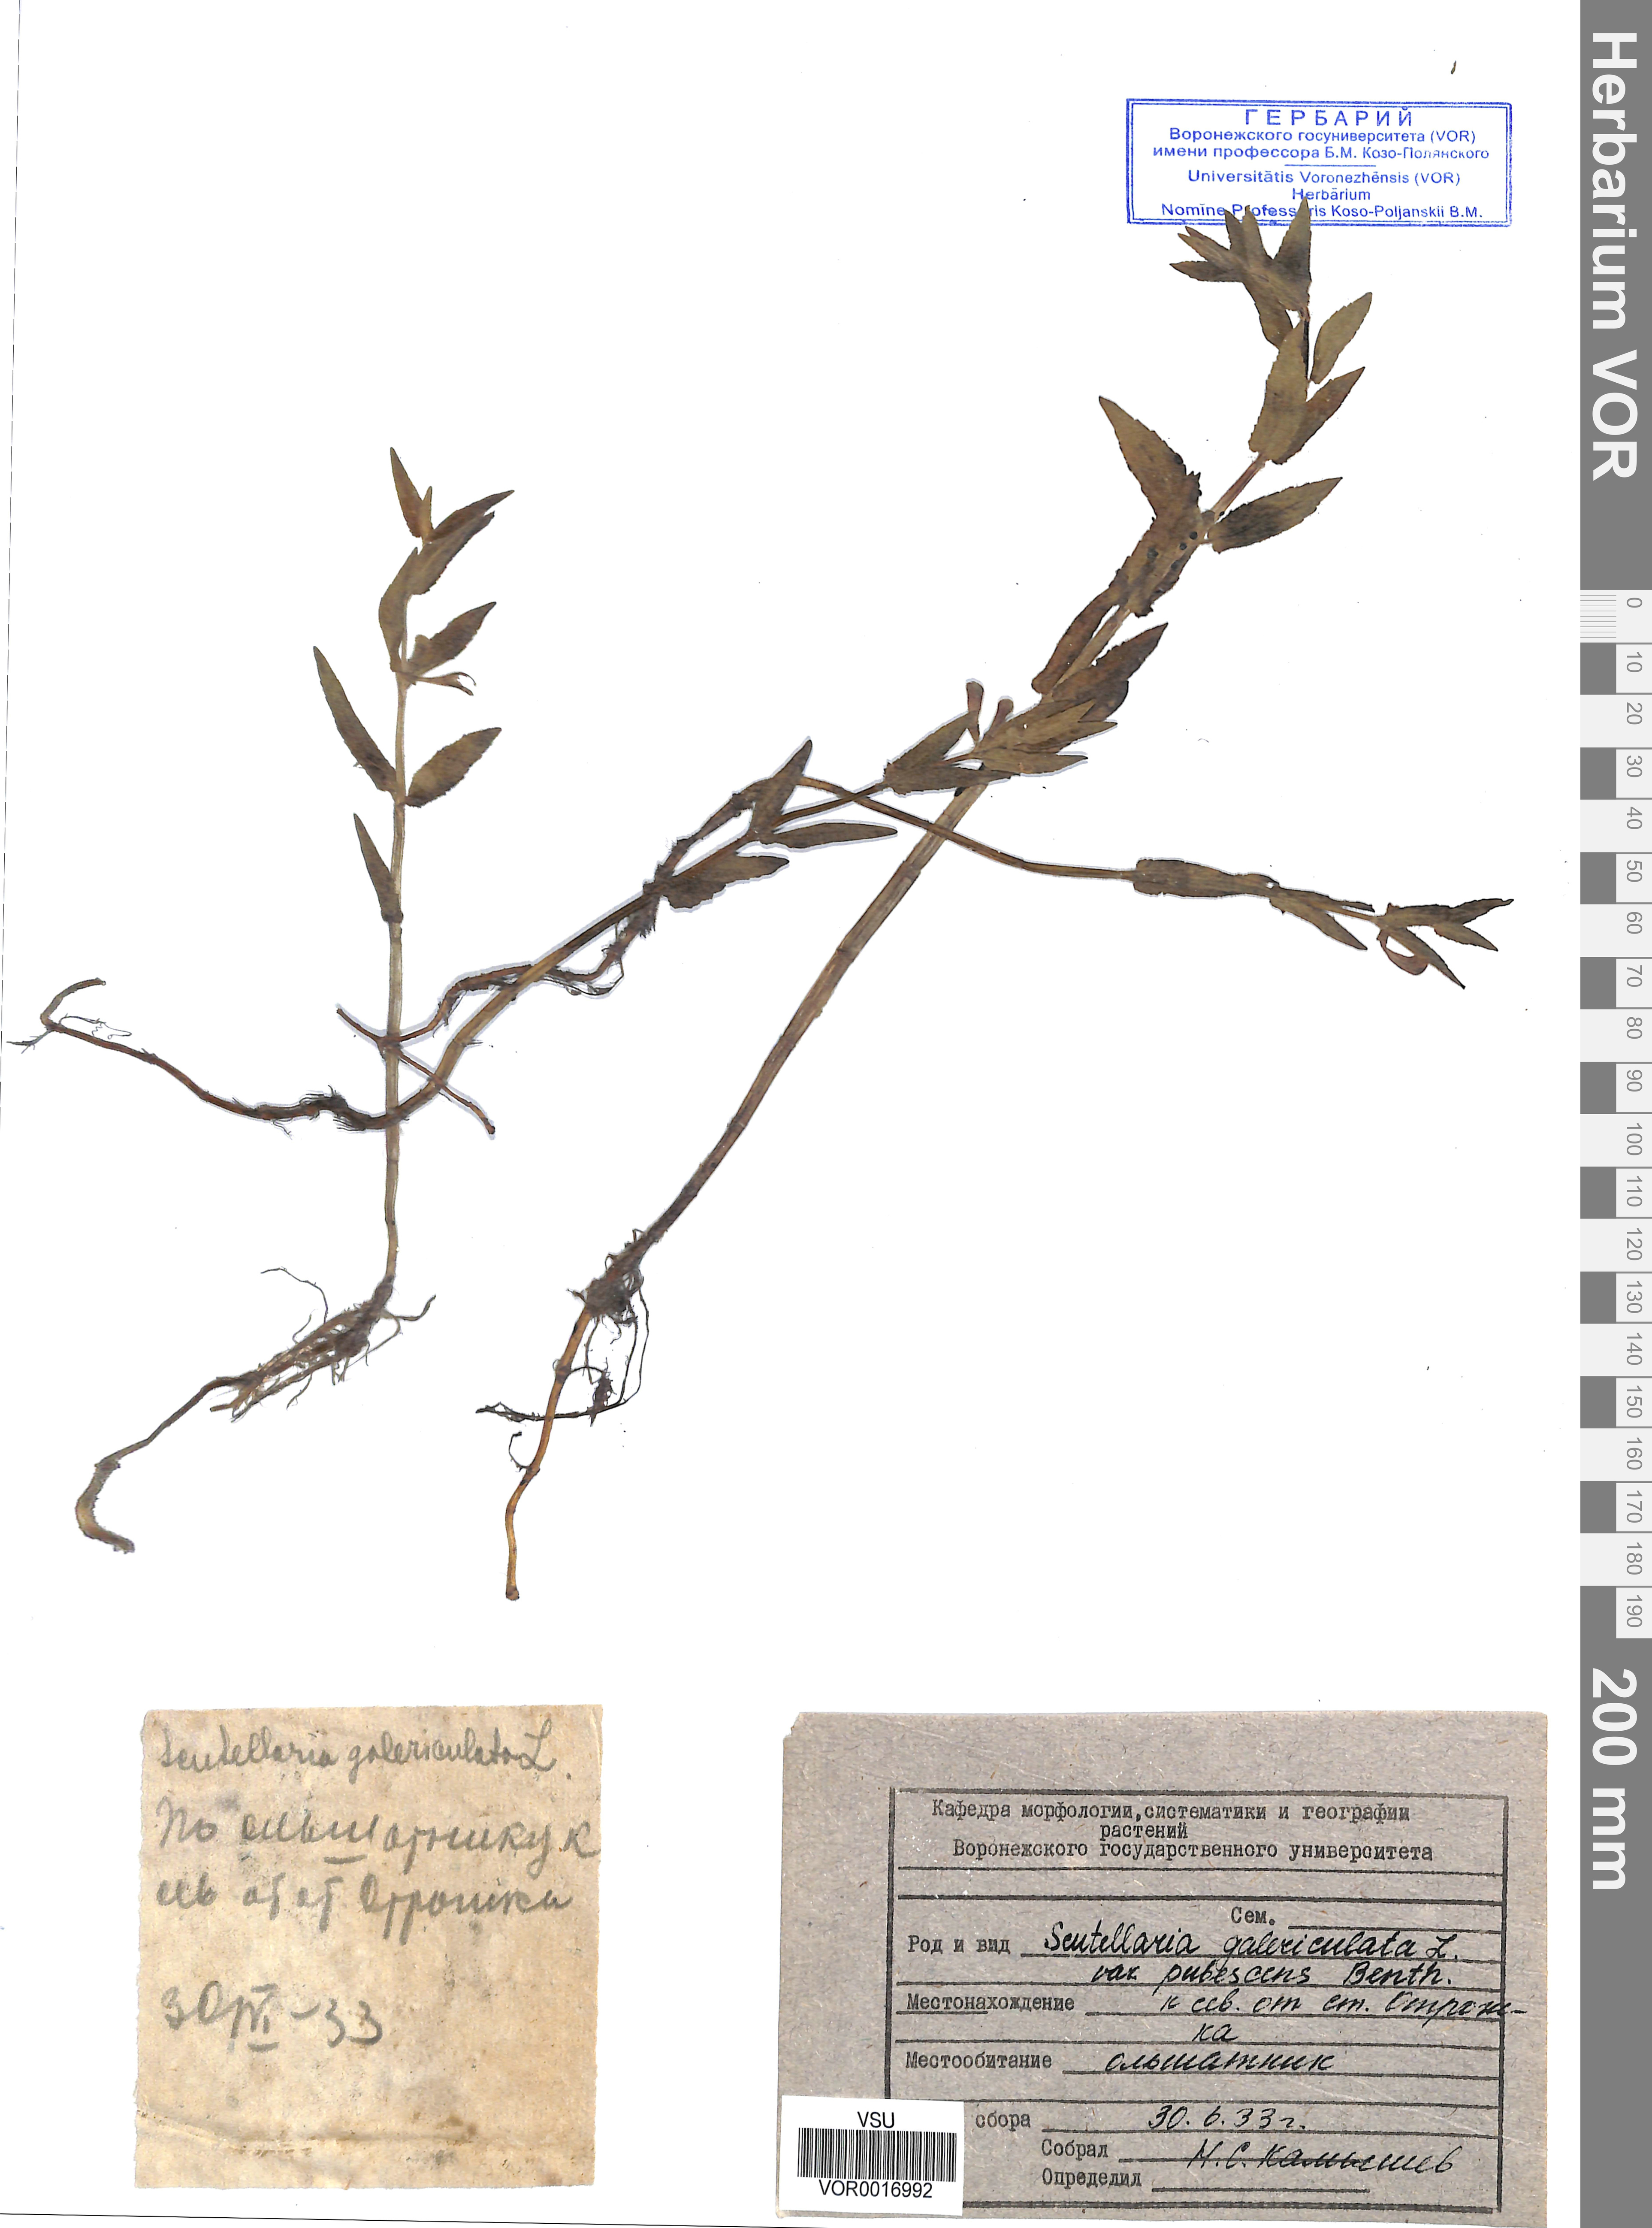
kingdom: Plantae
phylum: Tracheophyta
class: Magnoliopsida
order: Lamiales
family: Lamiaceae
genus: Scutellaria
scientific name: Scutellaria galericulata
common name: Skullcap
